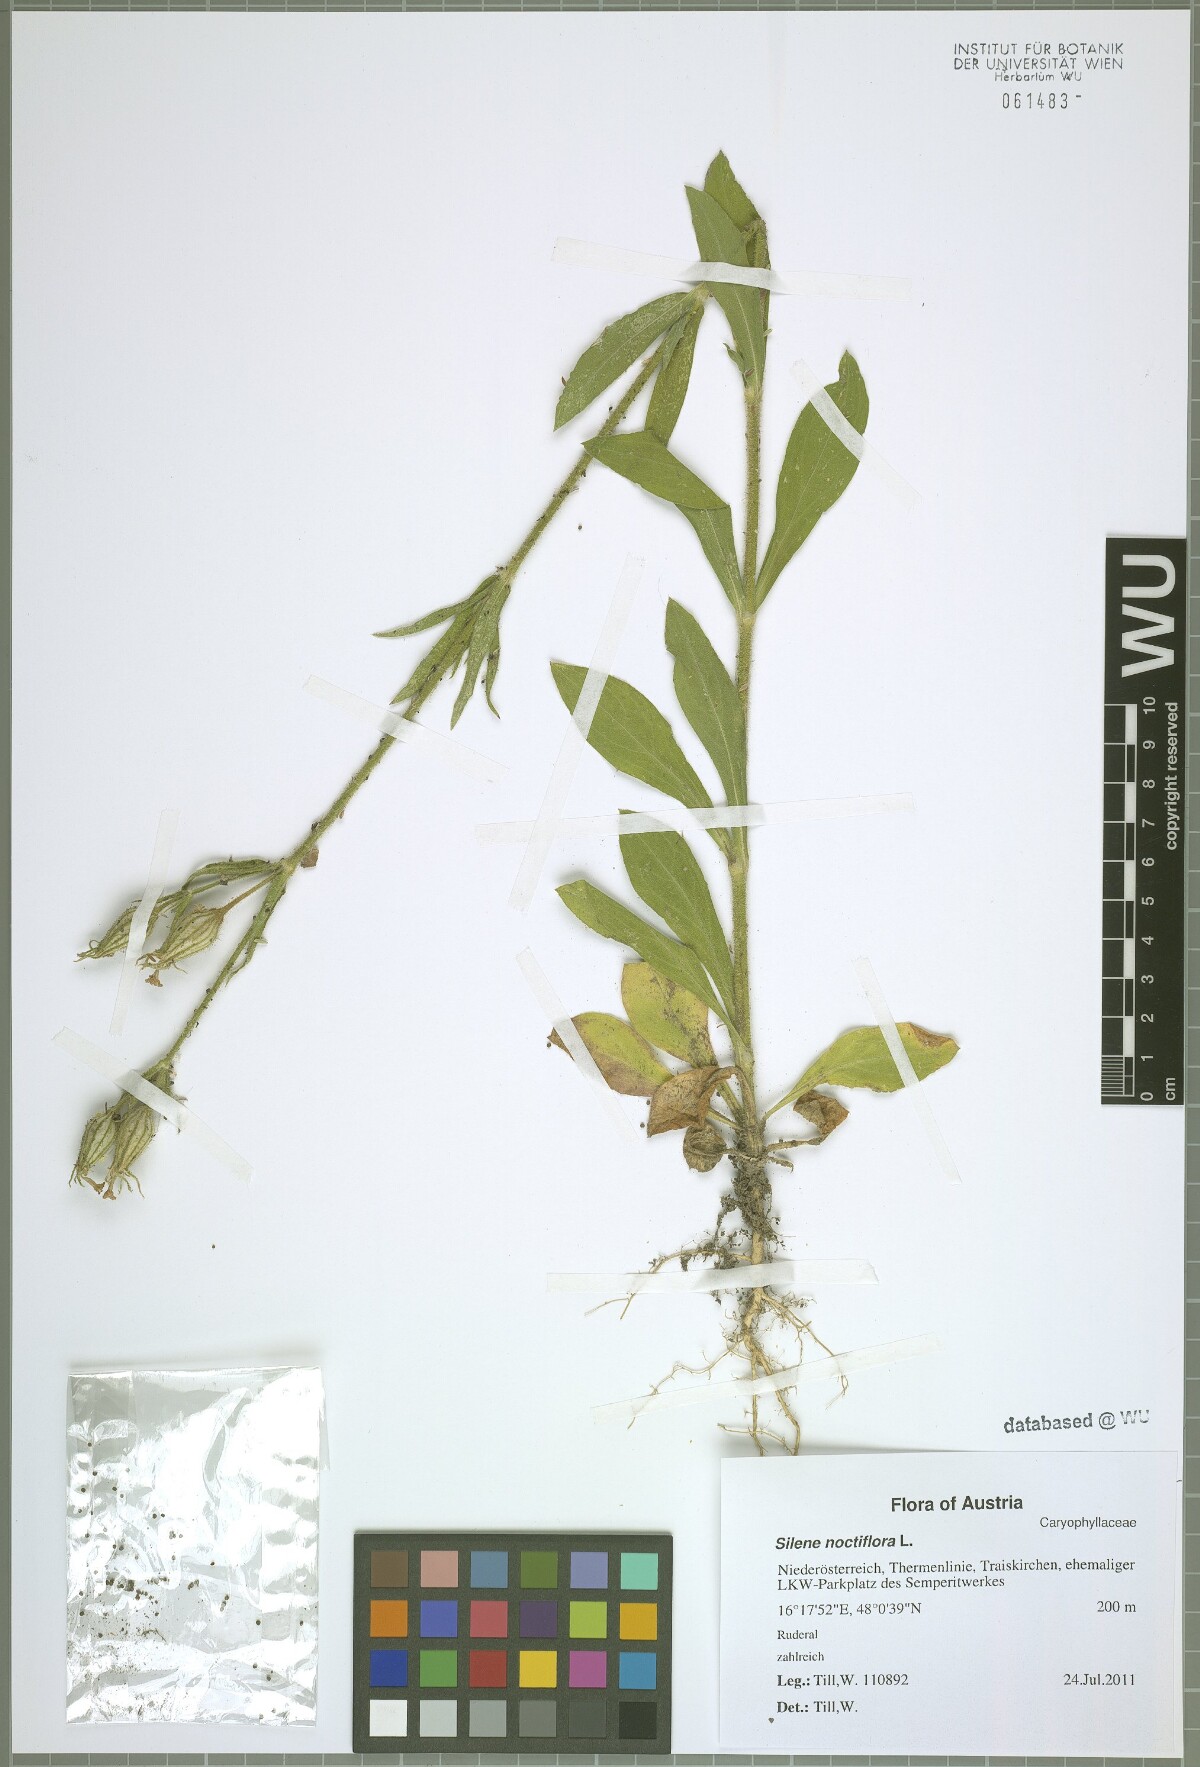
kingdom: Plantae
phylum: Tracheophyta
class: Magnoliopsida
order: Caryophyllales
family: Caryophyllaceae
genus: Silene
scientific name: Silene noctiflora
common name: Night-flowering catchfly
